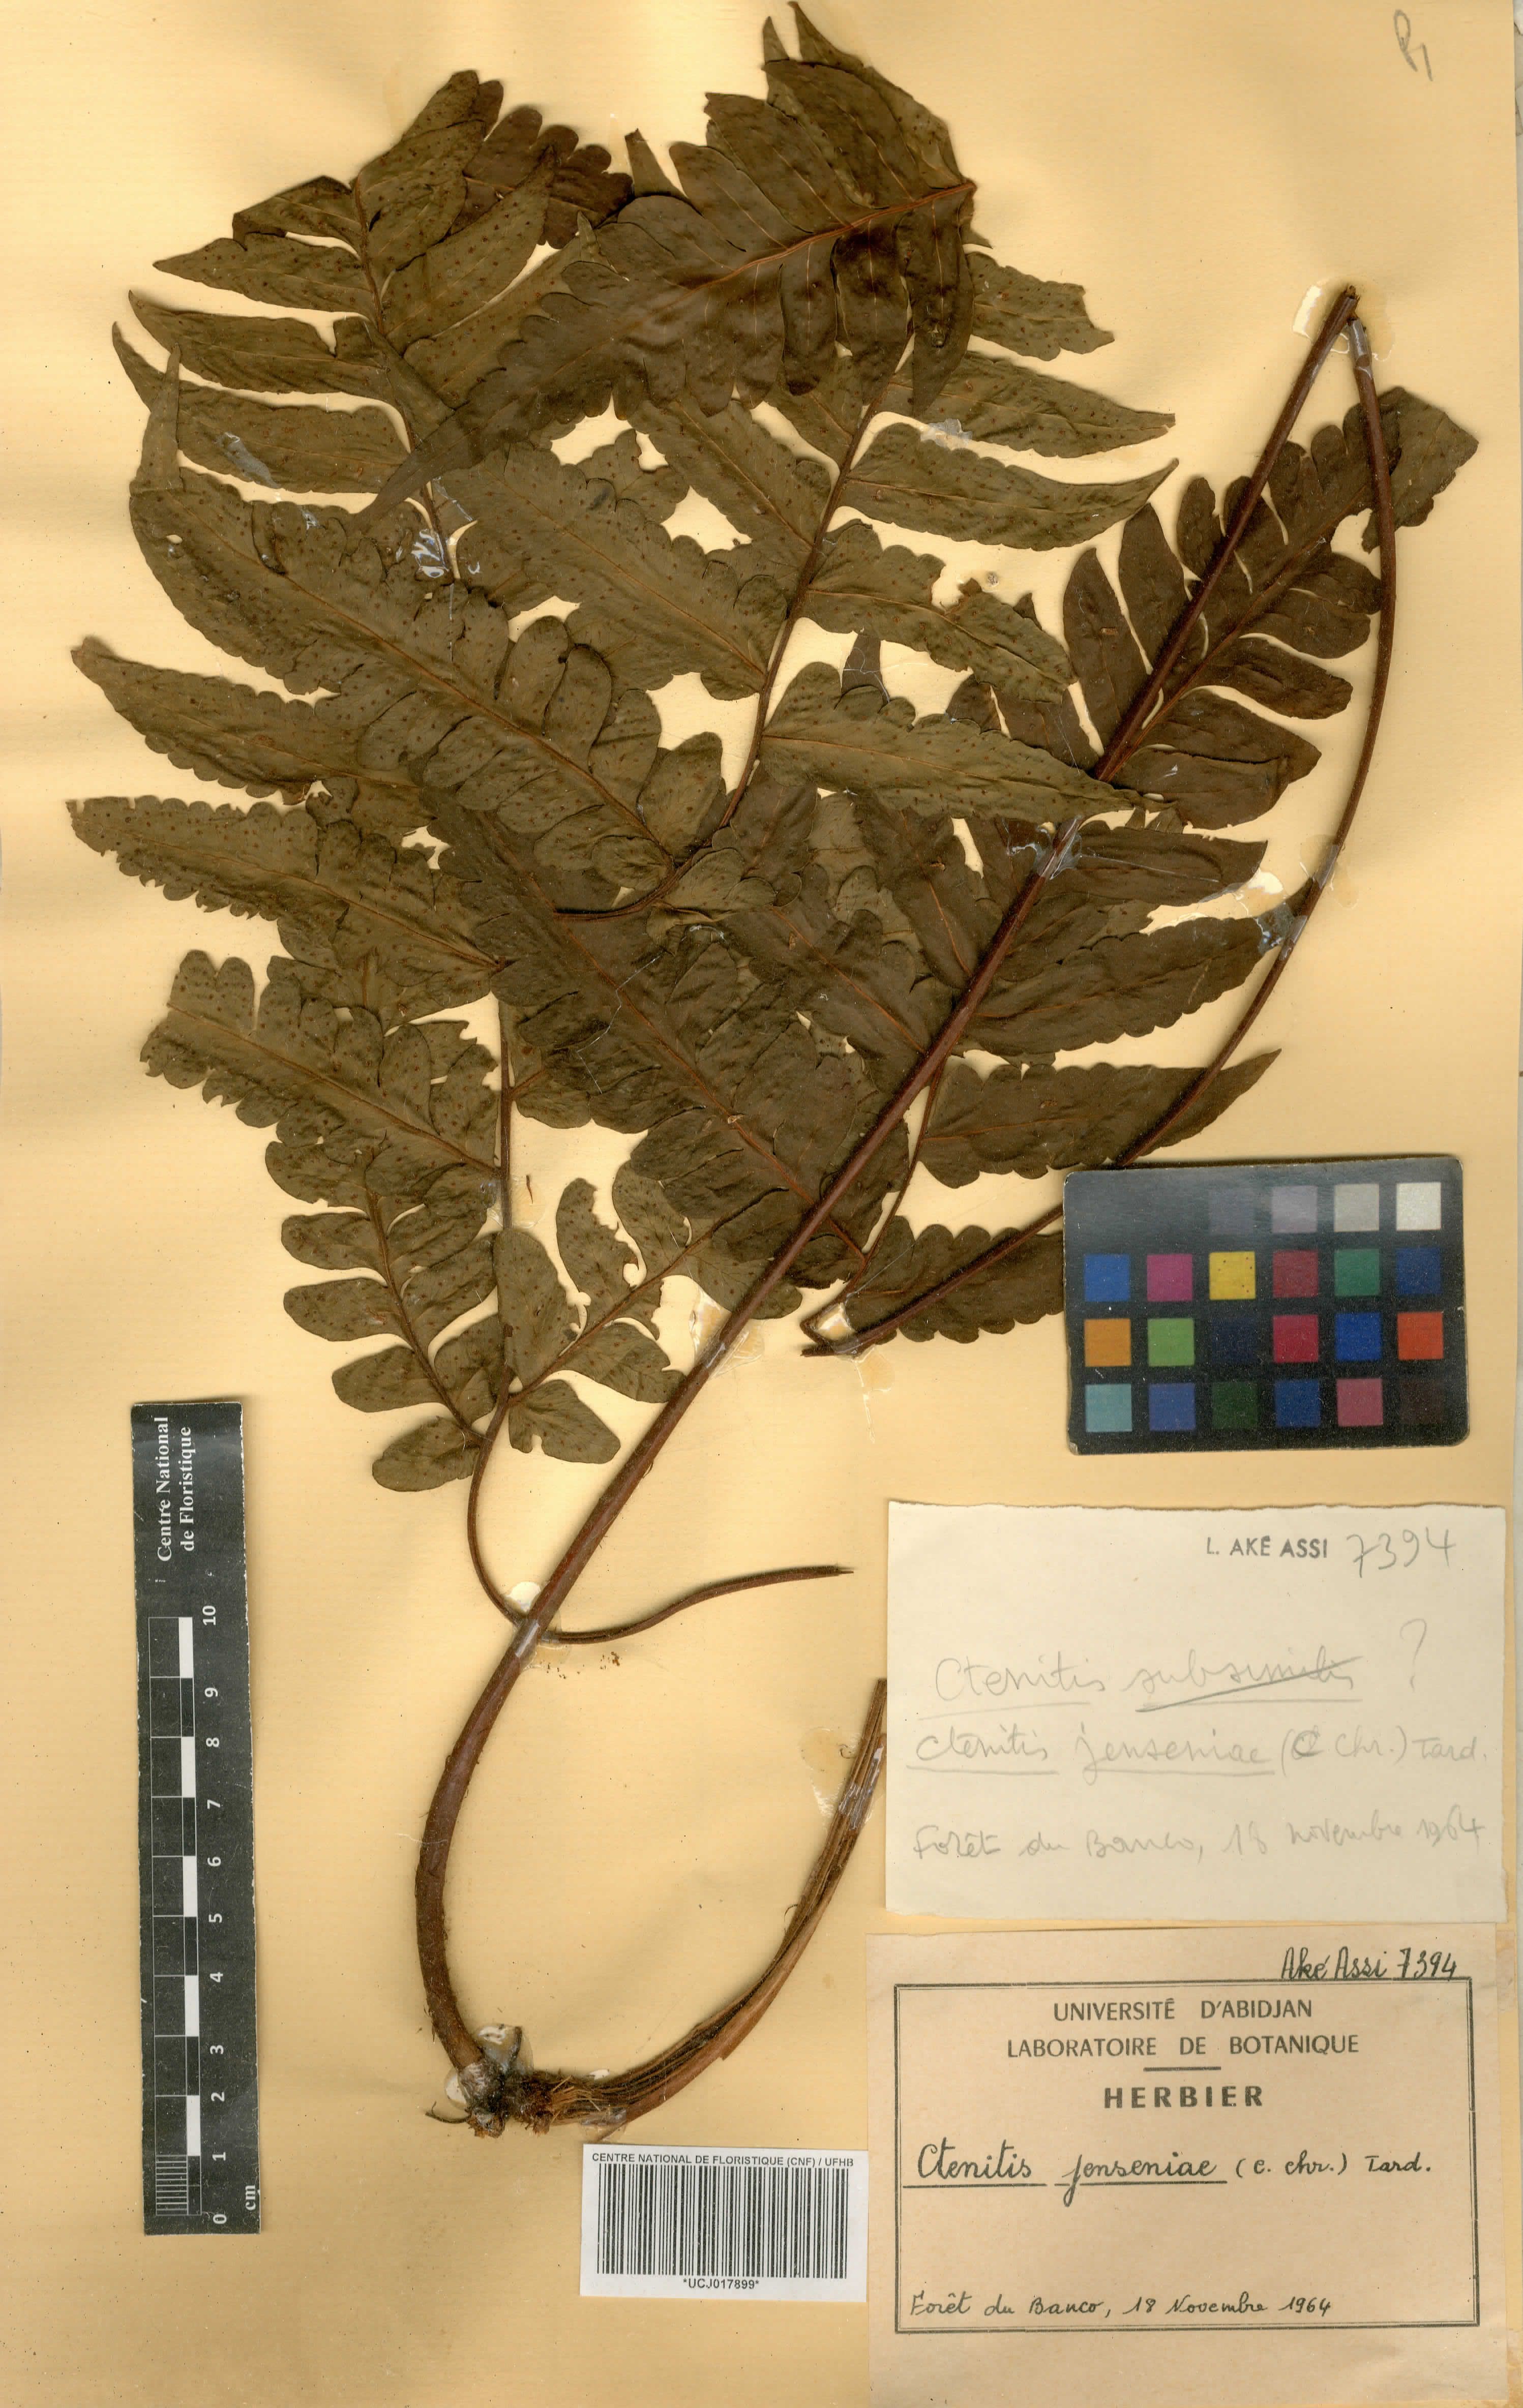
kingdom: Plantae
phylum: Tracheophyta
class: Polypodiopsida
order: Polypodiales
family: Tectariaceae
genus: Triplophyllum
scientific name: Triplophyllum jenseniae
